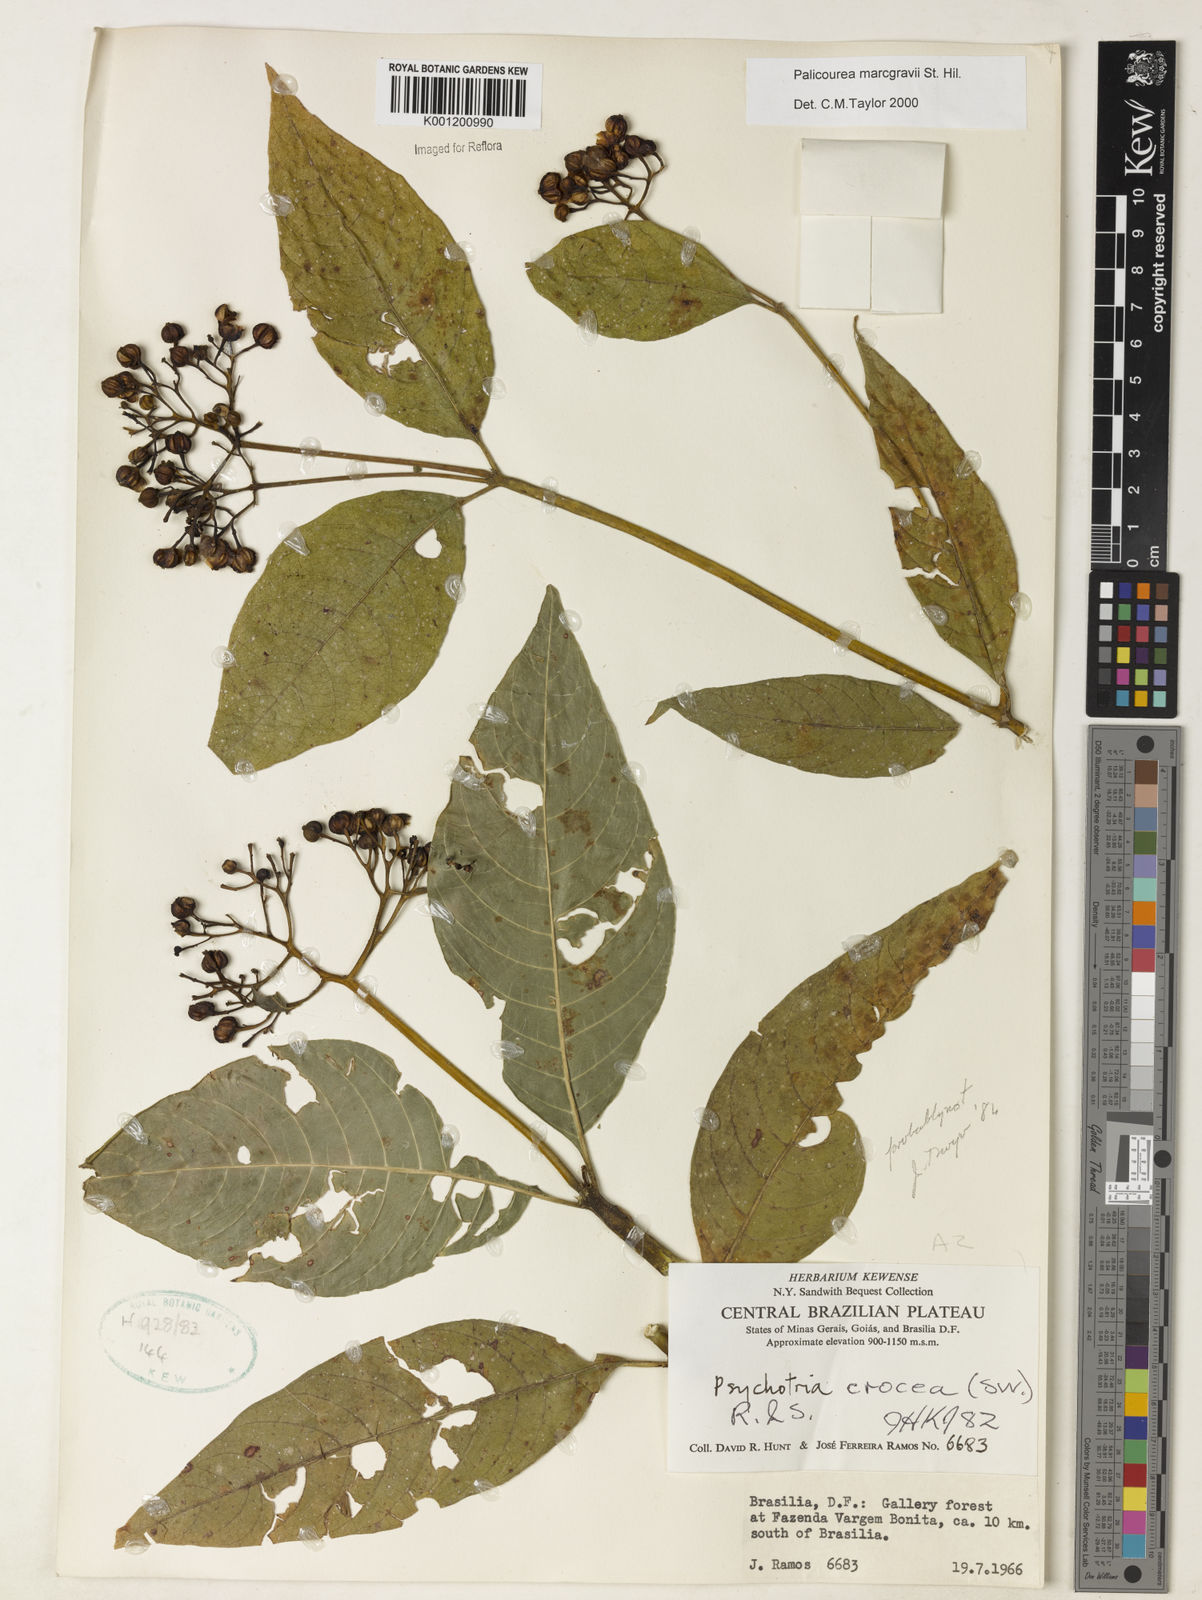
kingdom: Plantae
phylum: Tracheophyta
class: Magnoliopsida
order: Gentianales
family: Rubiaceae
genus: Palicourea
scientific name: Palicourea marcgravii
